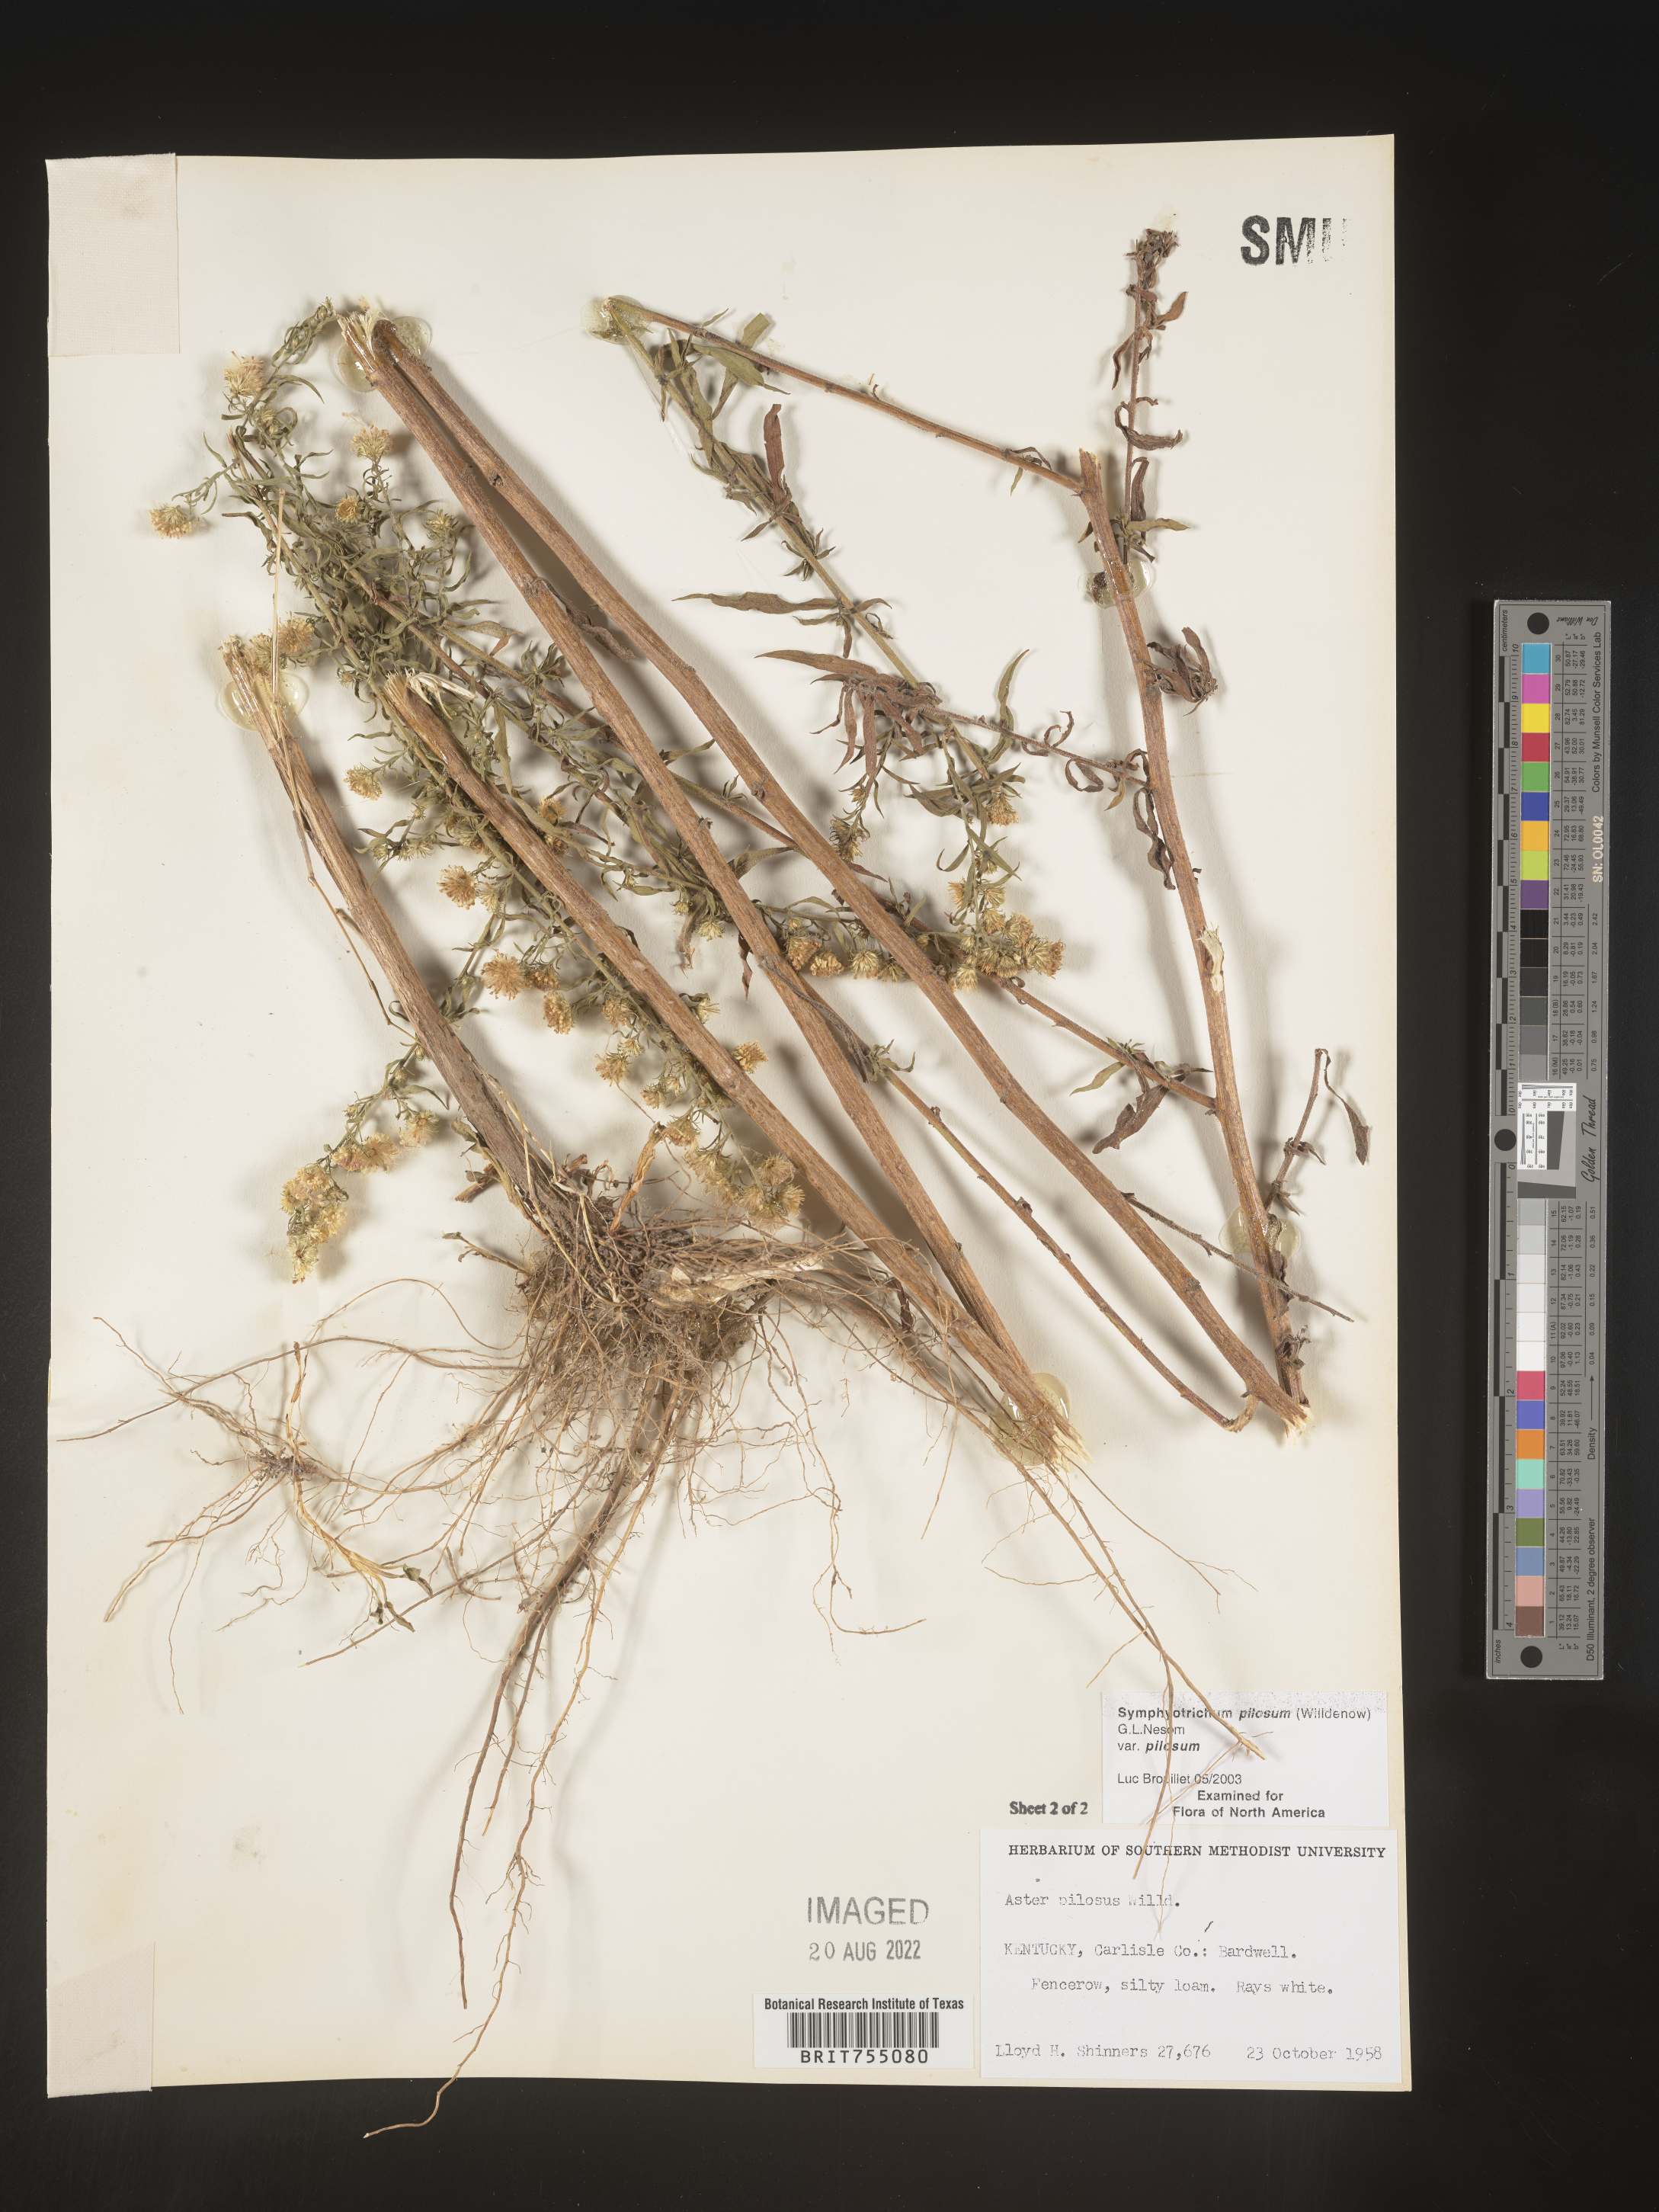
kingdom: Plantae
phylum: Tracheophyta
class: Magnoliopsida
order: Asterales
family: Asteraceae
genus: Symphyotrichum
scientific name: Symphyotrichum pilosum
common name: Awl aster
